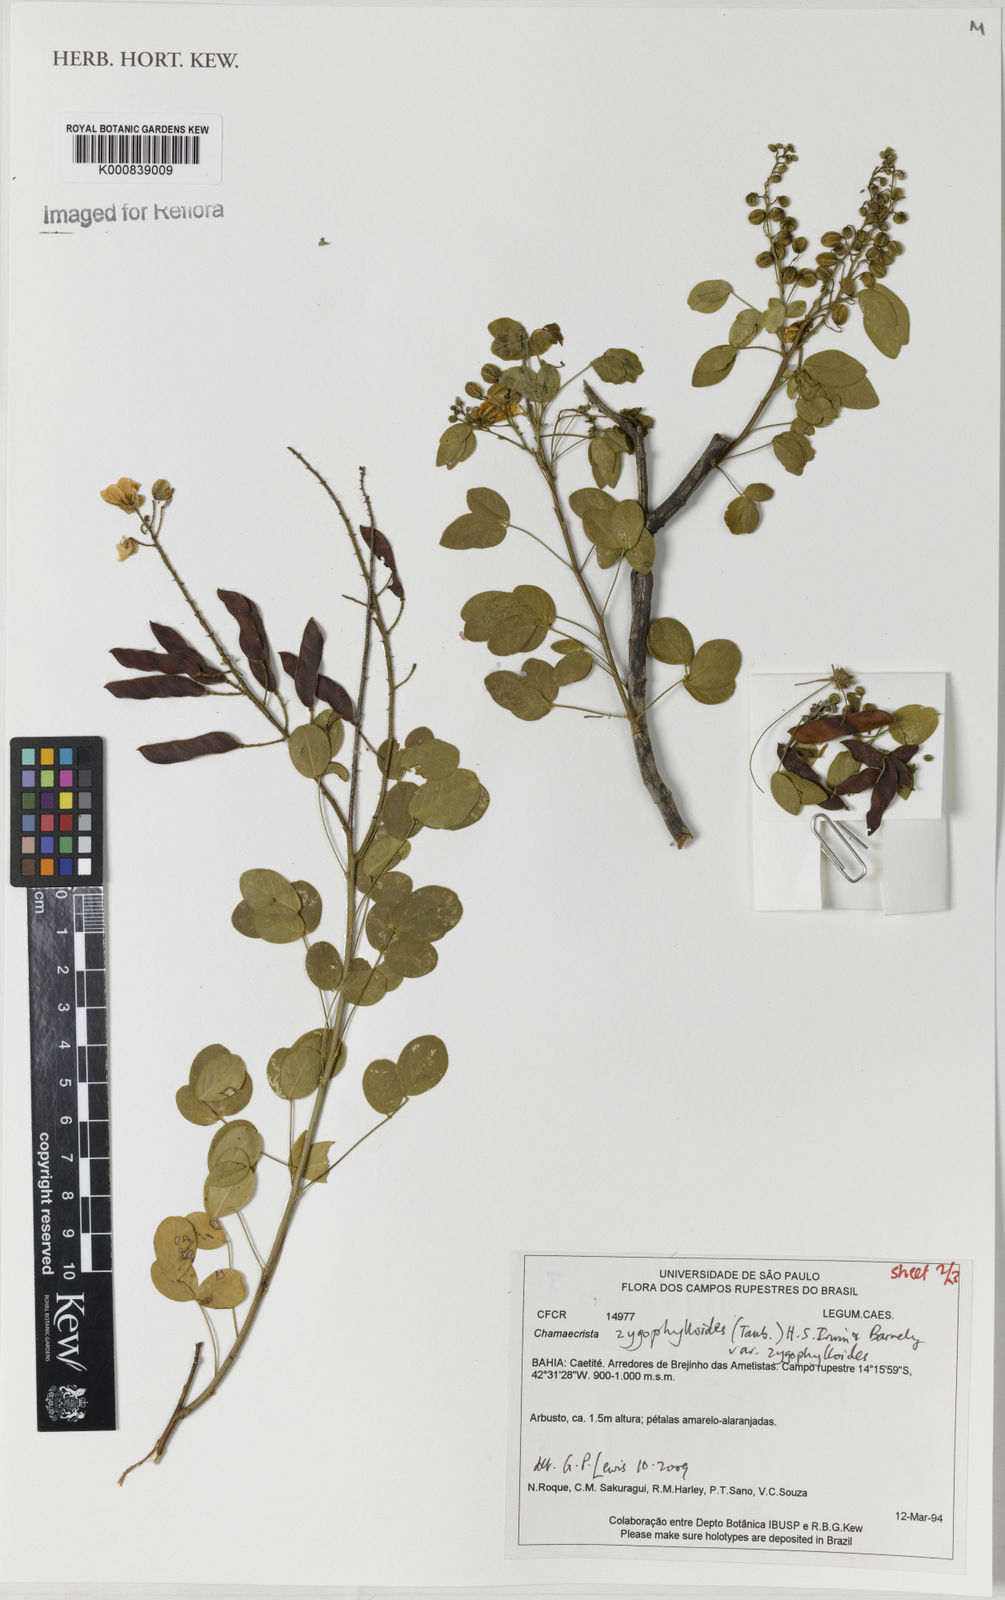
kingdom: Plantae
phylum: Tracheophyta
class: Magnoliopsida
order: Fabales
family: Fabaceae
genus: Chamaecrista
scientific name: Chamaecrista zygophylloides
